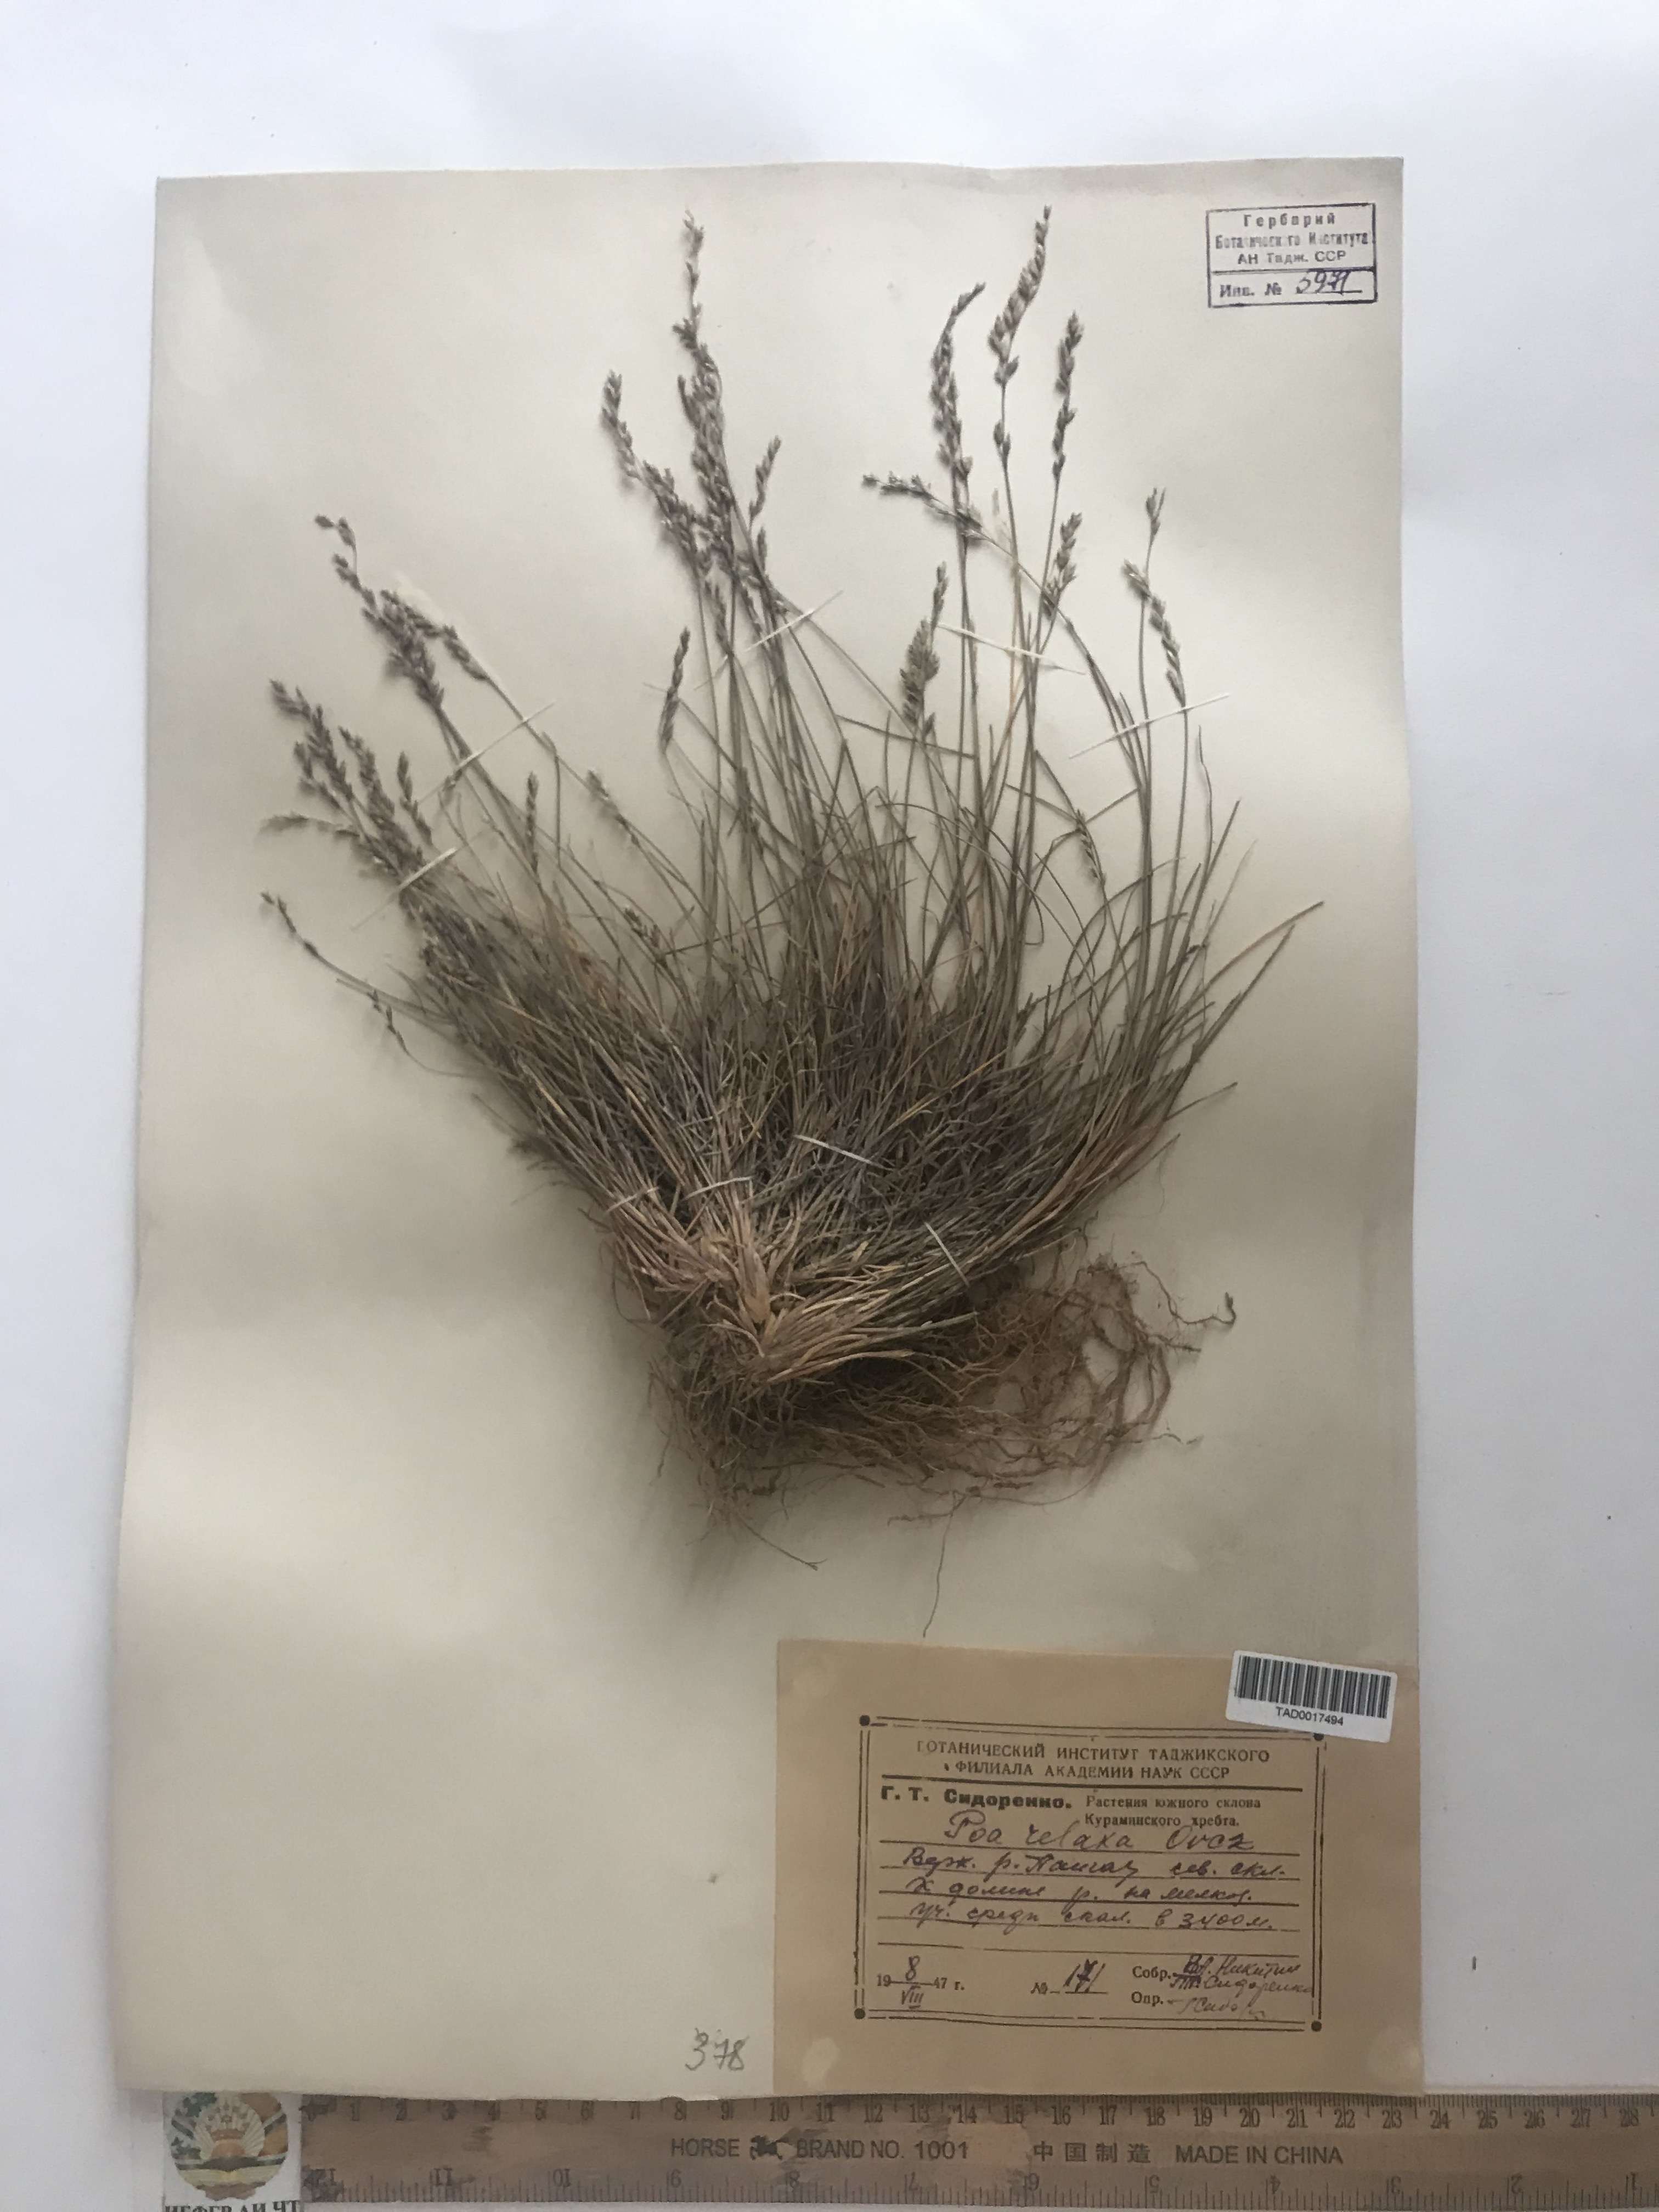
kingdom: Plantae
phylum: Tracheophyta
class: Liliopsida
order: Poales
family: Poaceae
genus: Poa
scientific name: Poa versicolor
